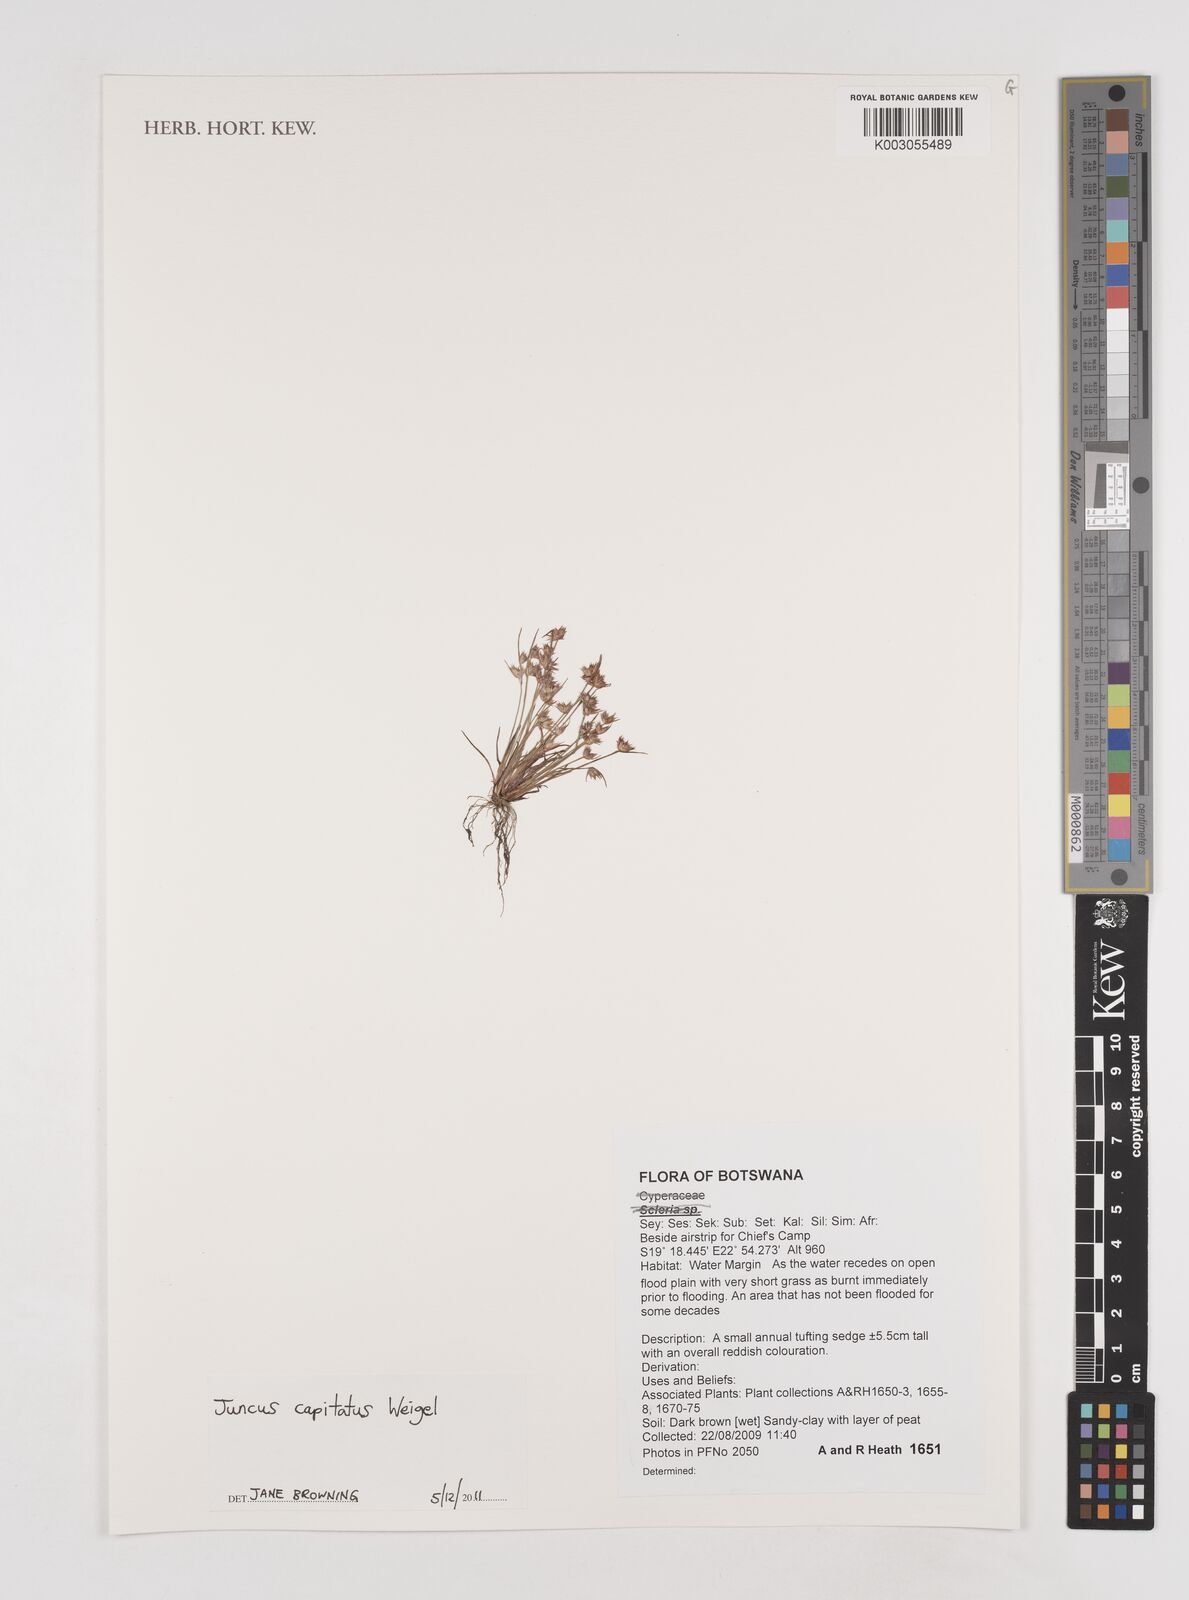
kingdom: Plantae
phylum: Tracheophyta
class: Liliopsida
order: Poales
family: Juncaceae
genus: Juncus
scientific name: Juncus capitatus
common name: Dwarf rush
